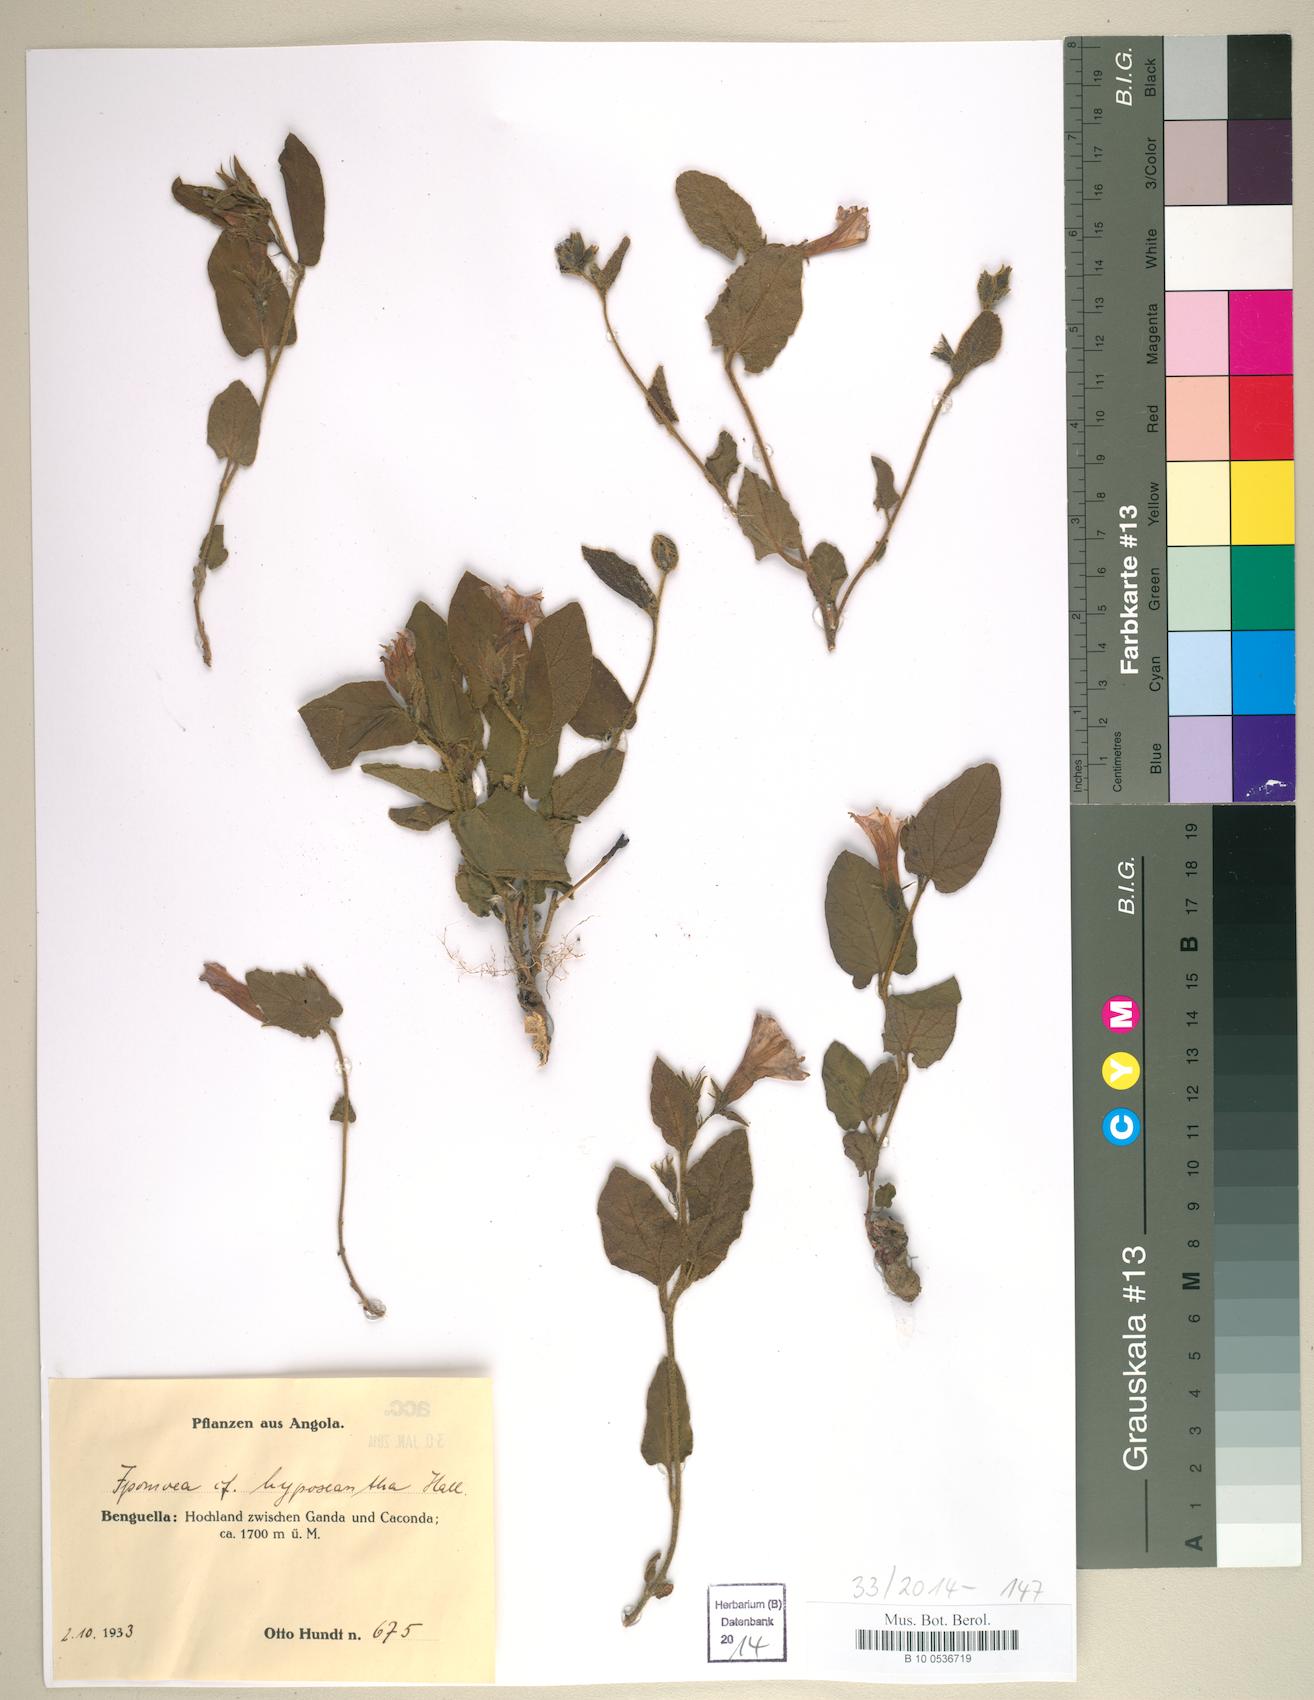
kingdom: Plantae
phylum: Tracheophyta
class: Magnoliopsida
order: Solanales
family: Convolvulaceae
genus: Ipomoea
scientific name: Ipomoea fulvicaulis
